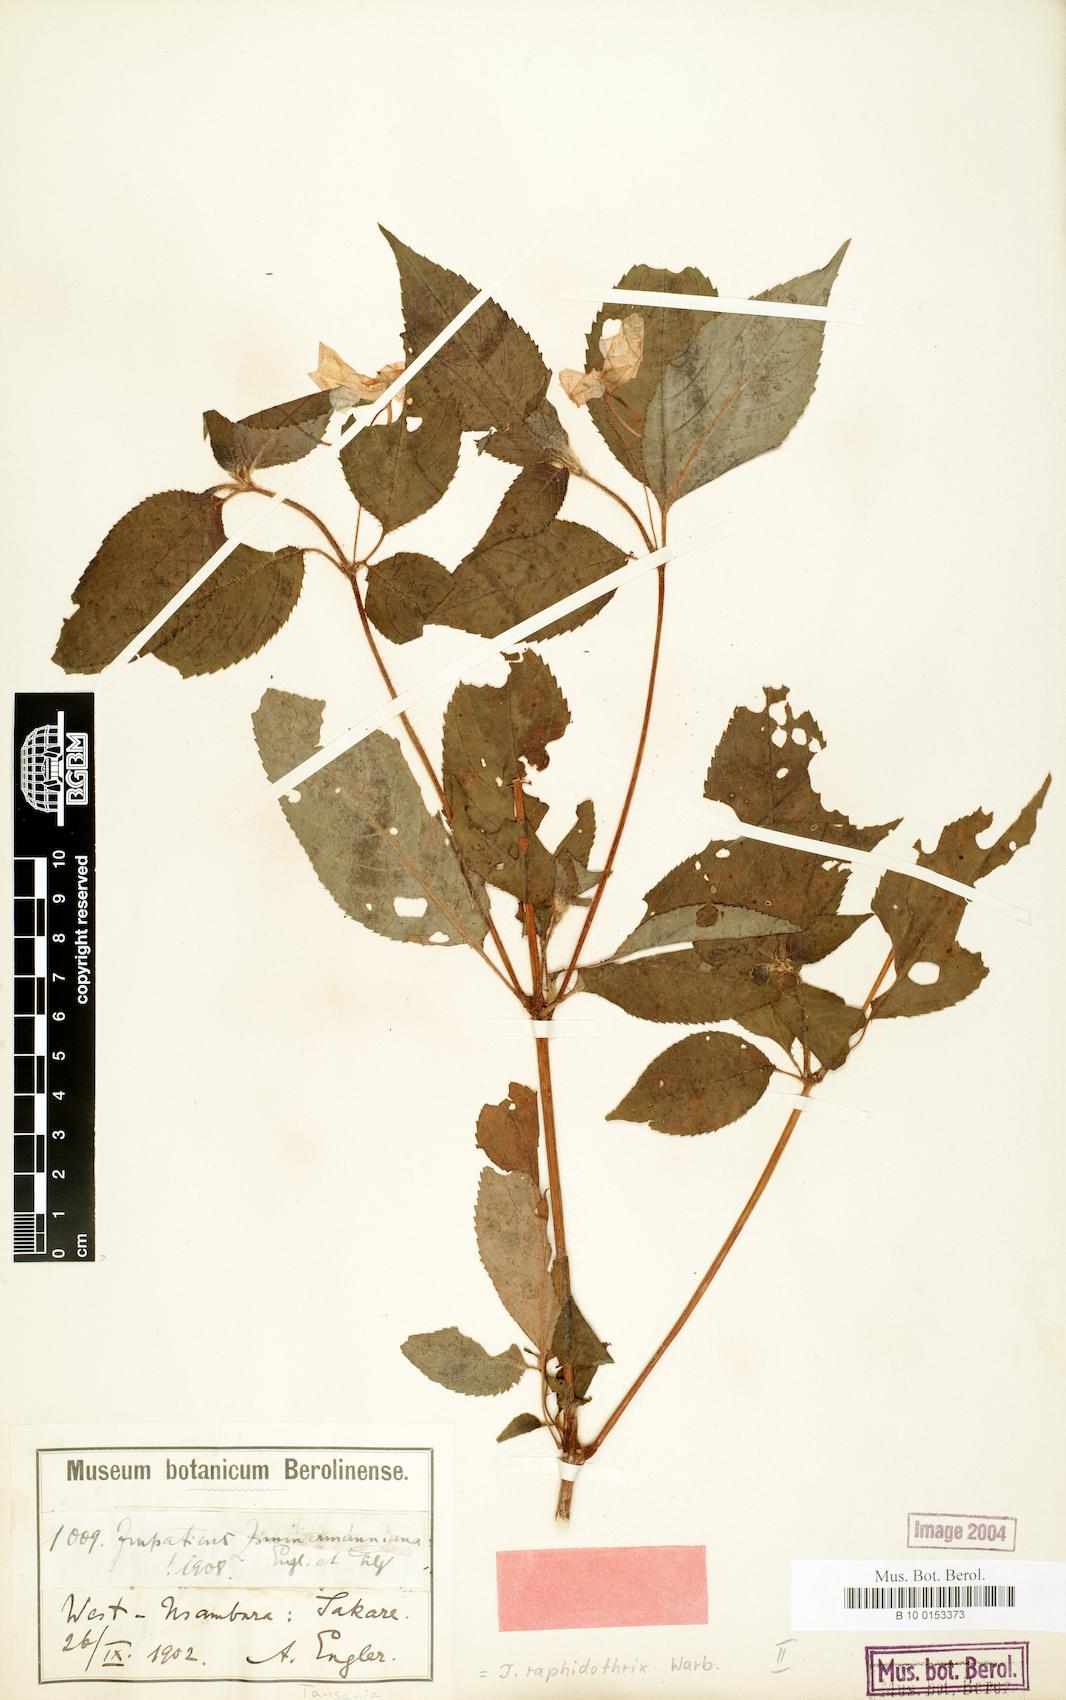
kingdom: Plantae
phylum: Tracheophyta
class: Magnoliopsida
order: Ericales
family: Balsaminaceae
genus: Impatiens
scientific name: Impatiens raphidothrix
